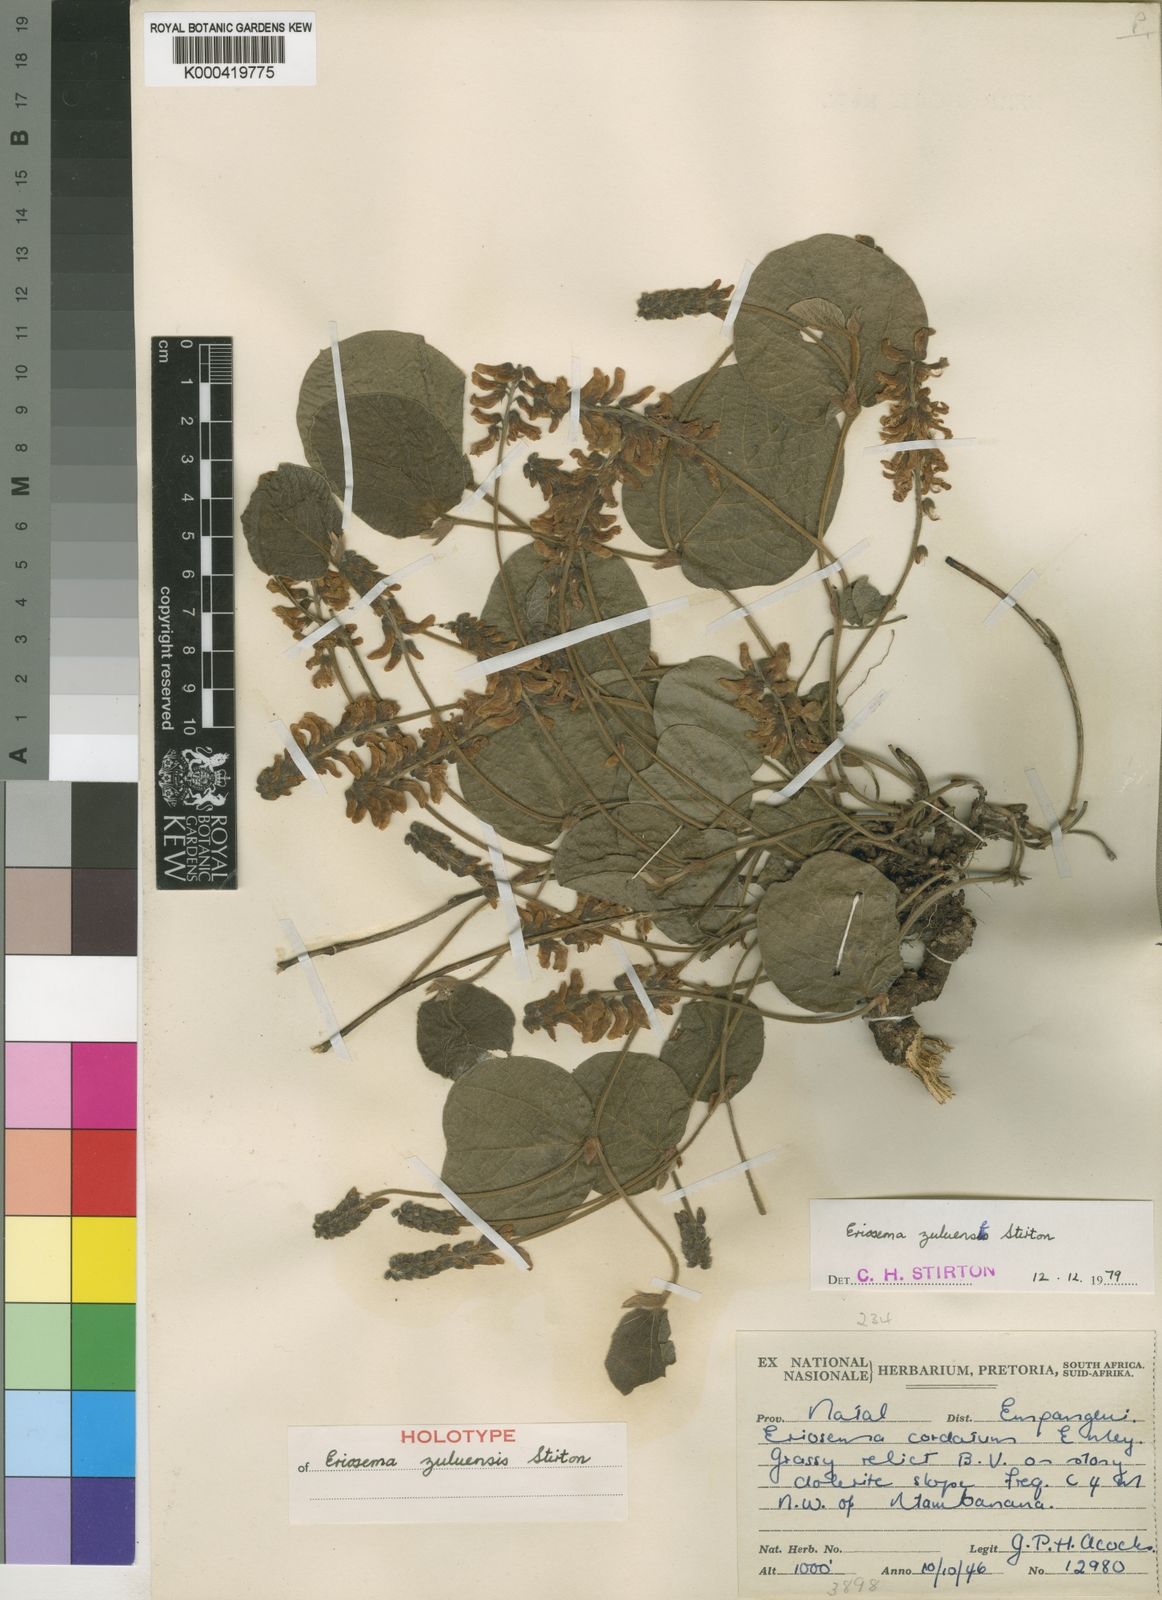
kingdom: Plantae
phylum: Tracheophyta
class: Magnoliopsida
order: Fabales
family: Fabaceae
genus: Eriosema
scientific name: Eriosema zuluense
